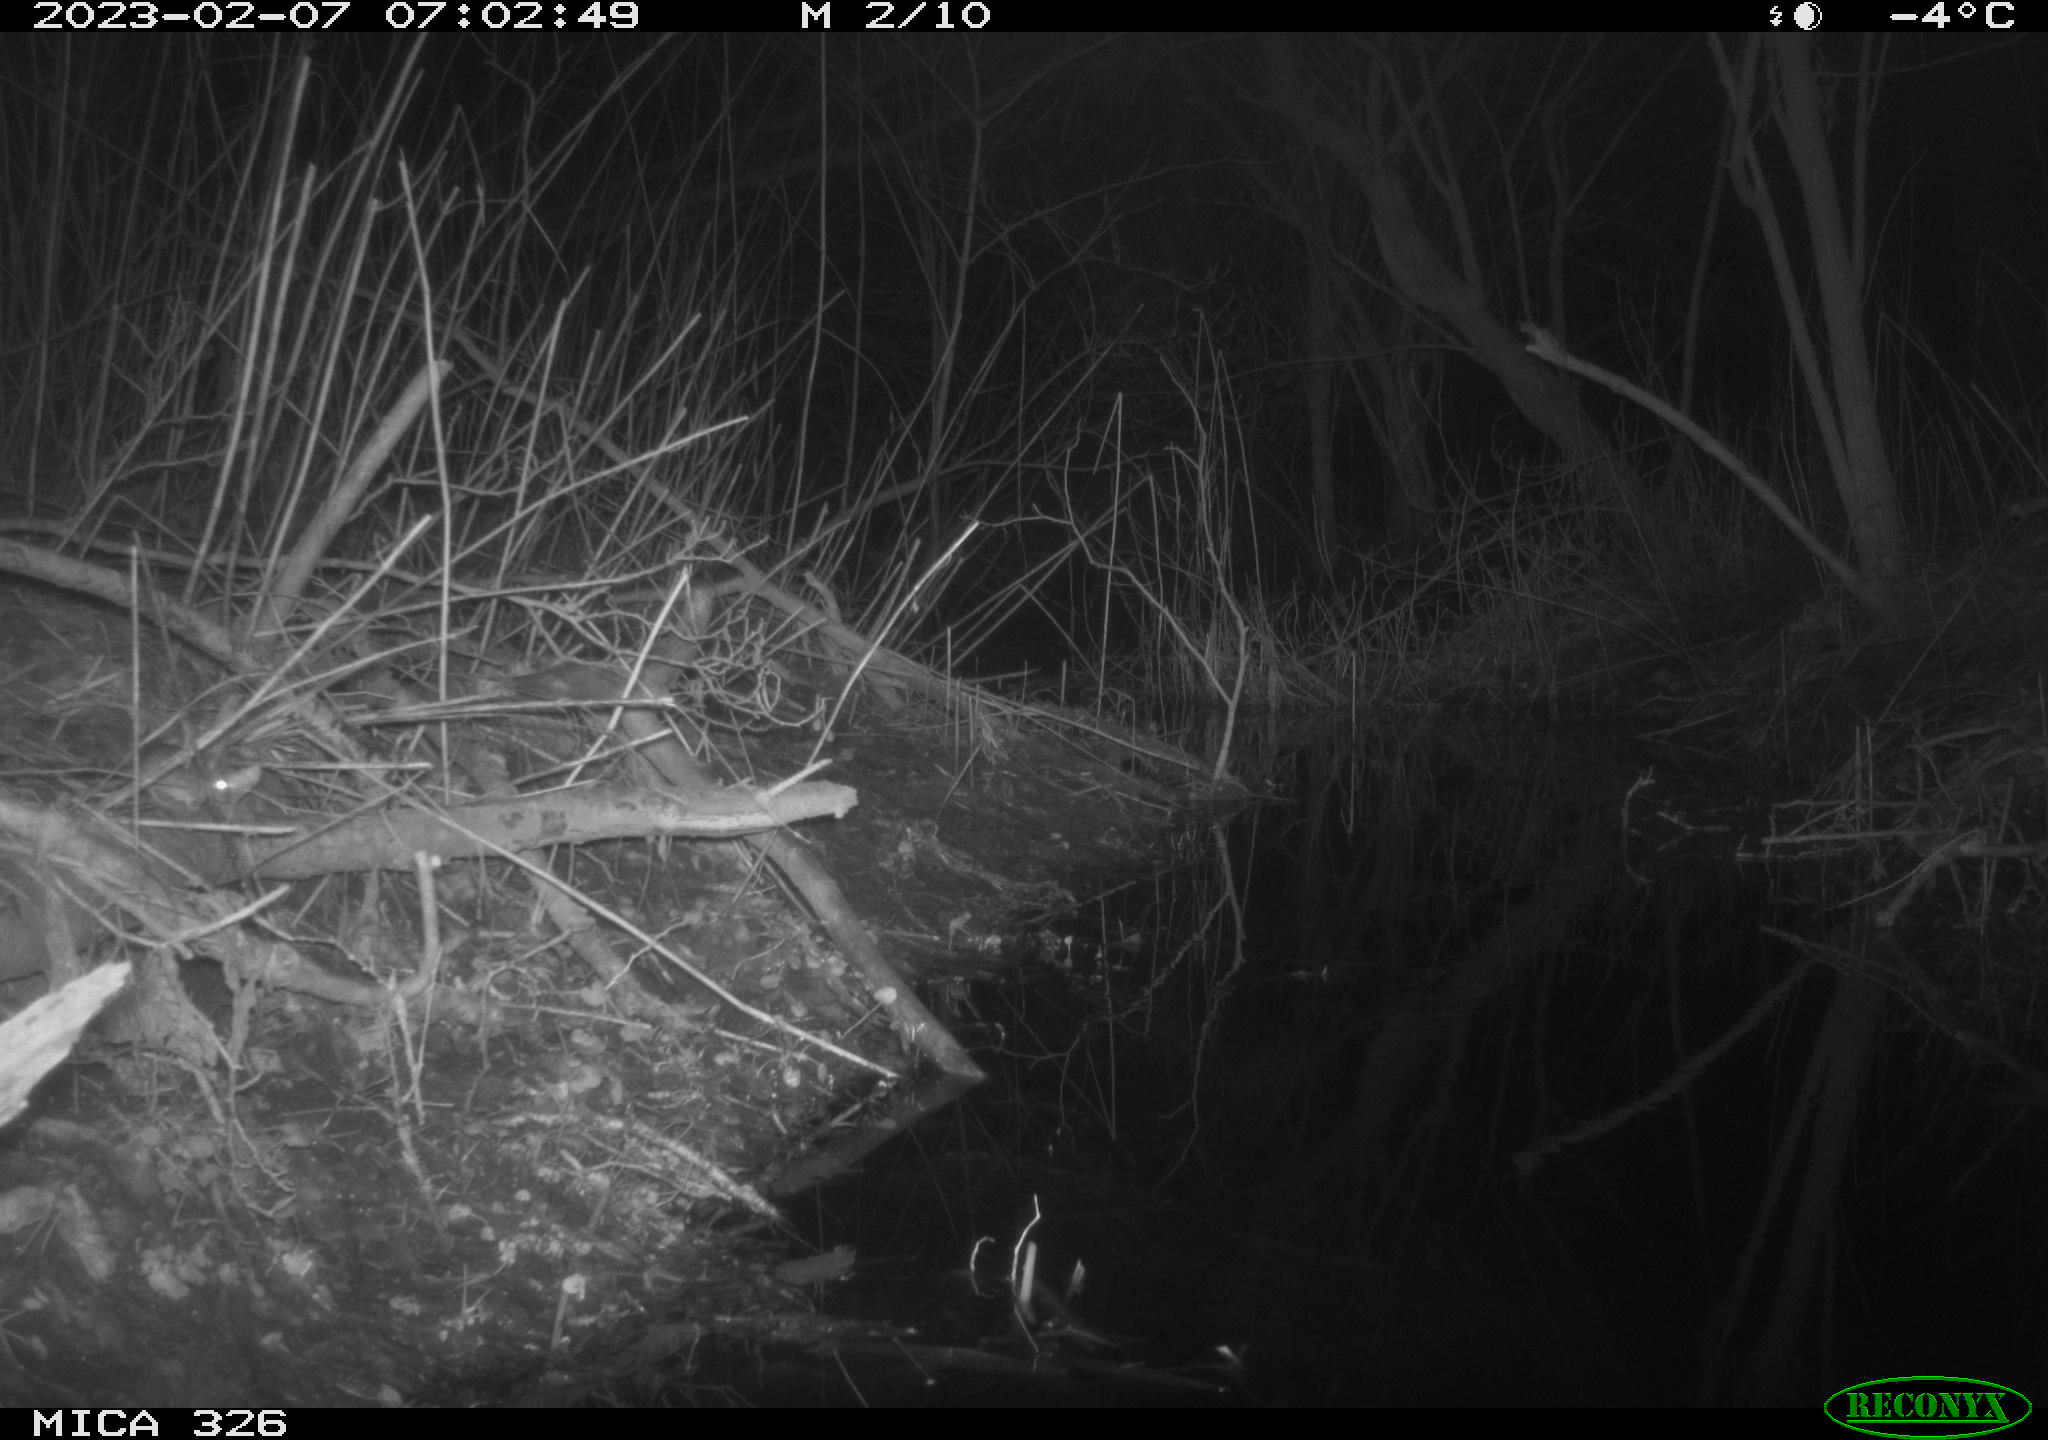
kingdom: Animalia
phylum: Chordata
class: Mammalia
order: Rodentia
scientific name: Rodentia
